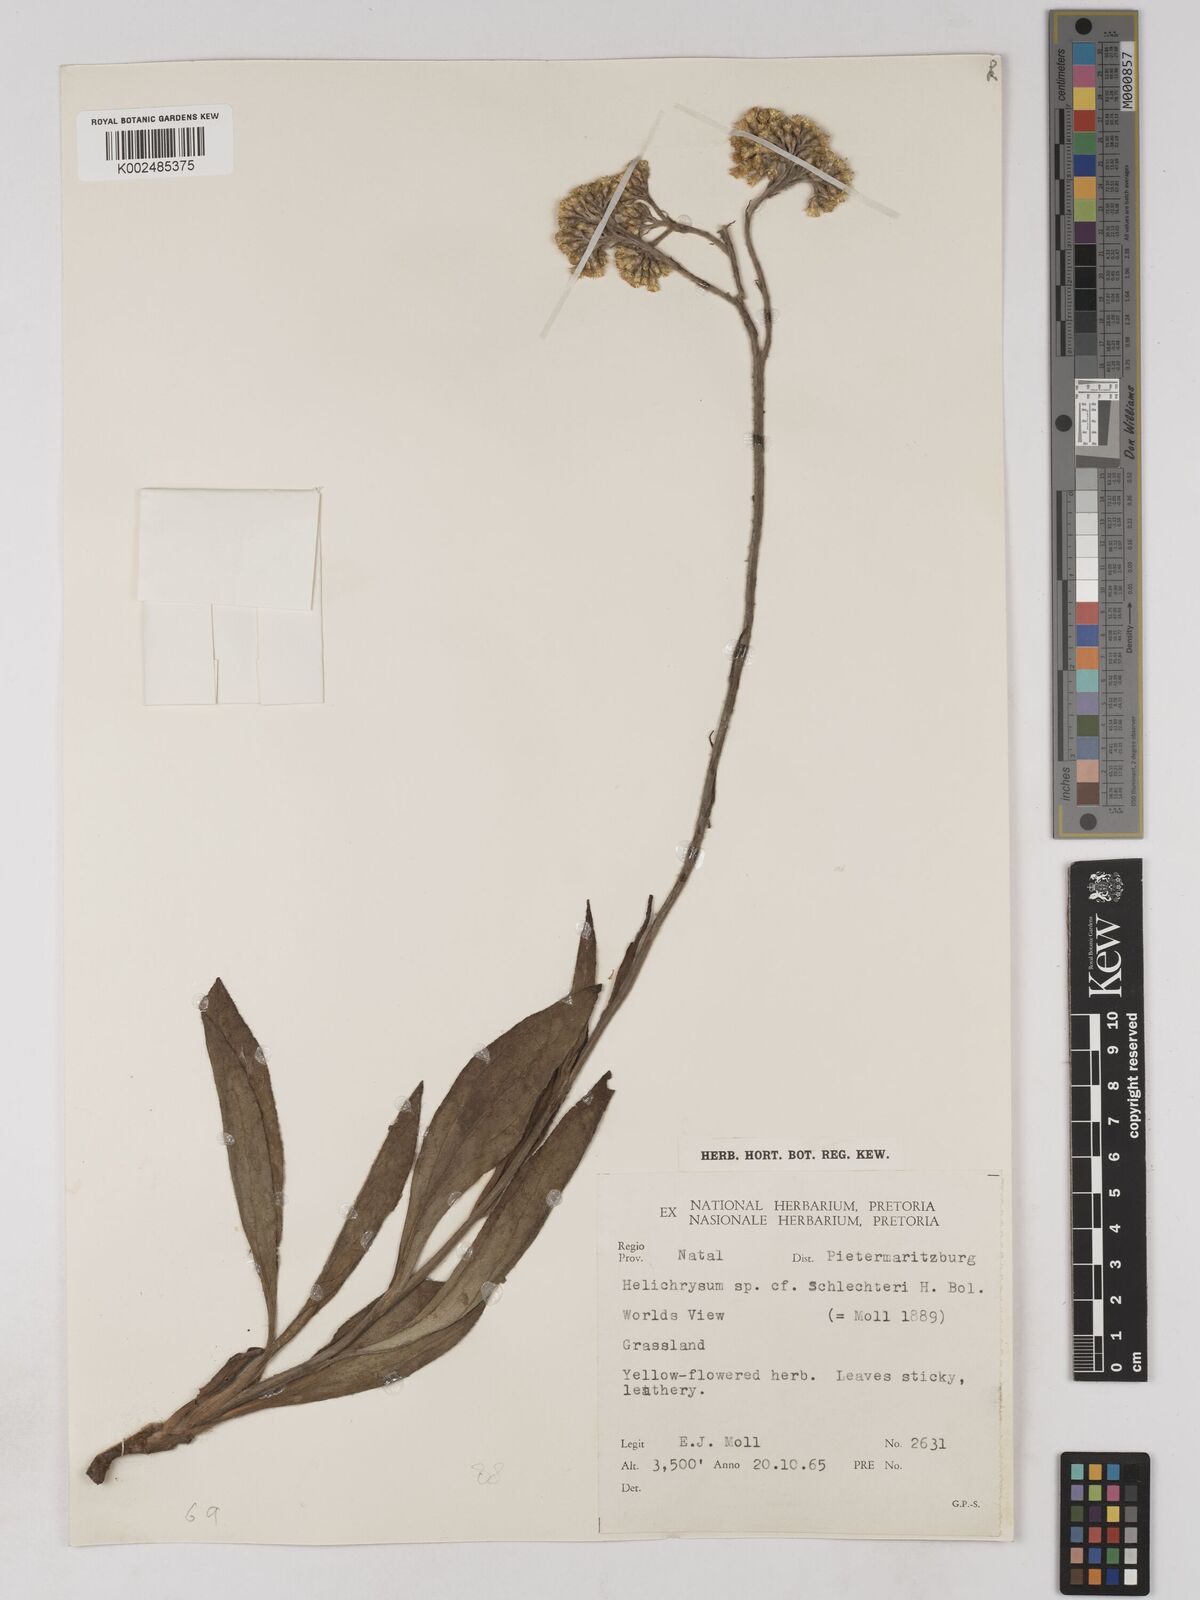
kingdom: Plantae
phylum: Tracheophyta
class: Magnoliopsida
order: Asterales
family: Asteraceae
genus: Helichrysum
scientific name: Helichrysum acutatum
